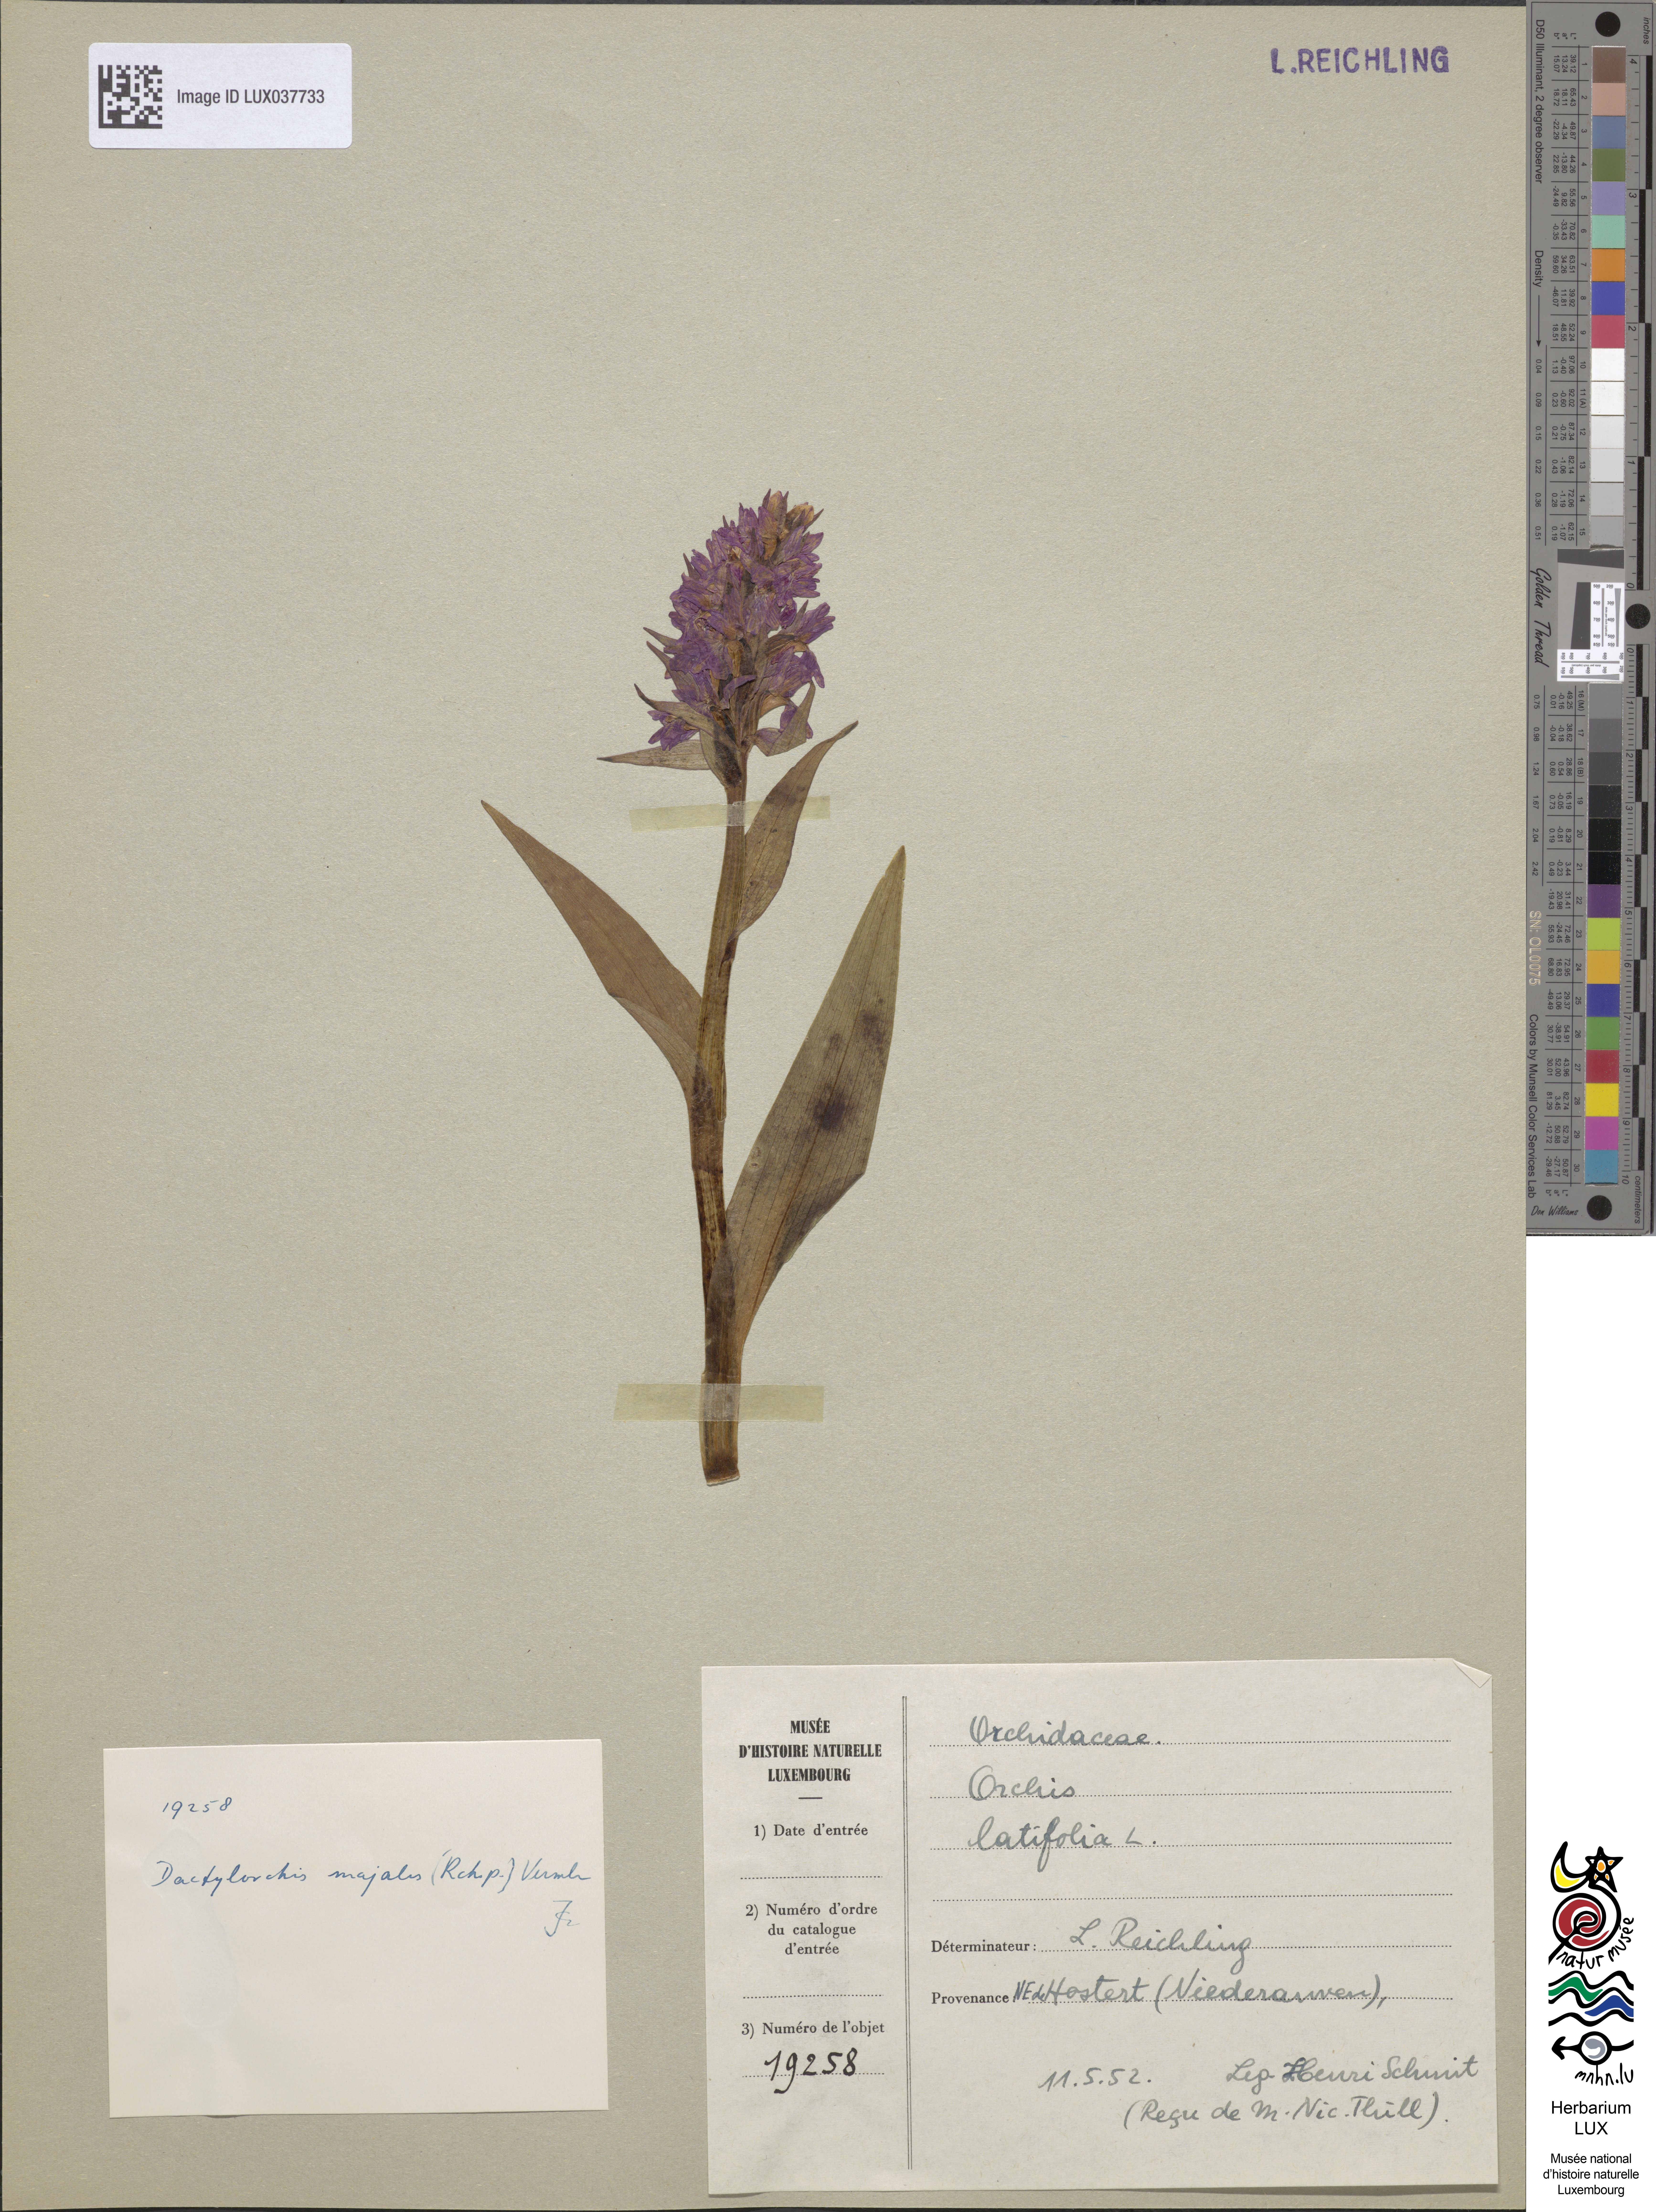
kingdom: Plantae
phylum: Tracheophyta
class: Liliopsida
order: Asparagales
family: Orchidaceae
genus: Dactylorhiza
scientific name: Dactylorhiza incarnata
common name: Early marsh-orchid
